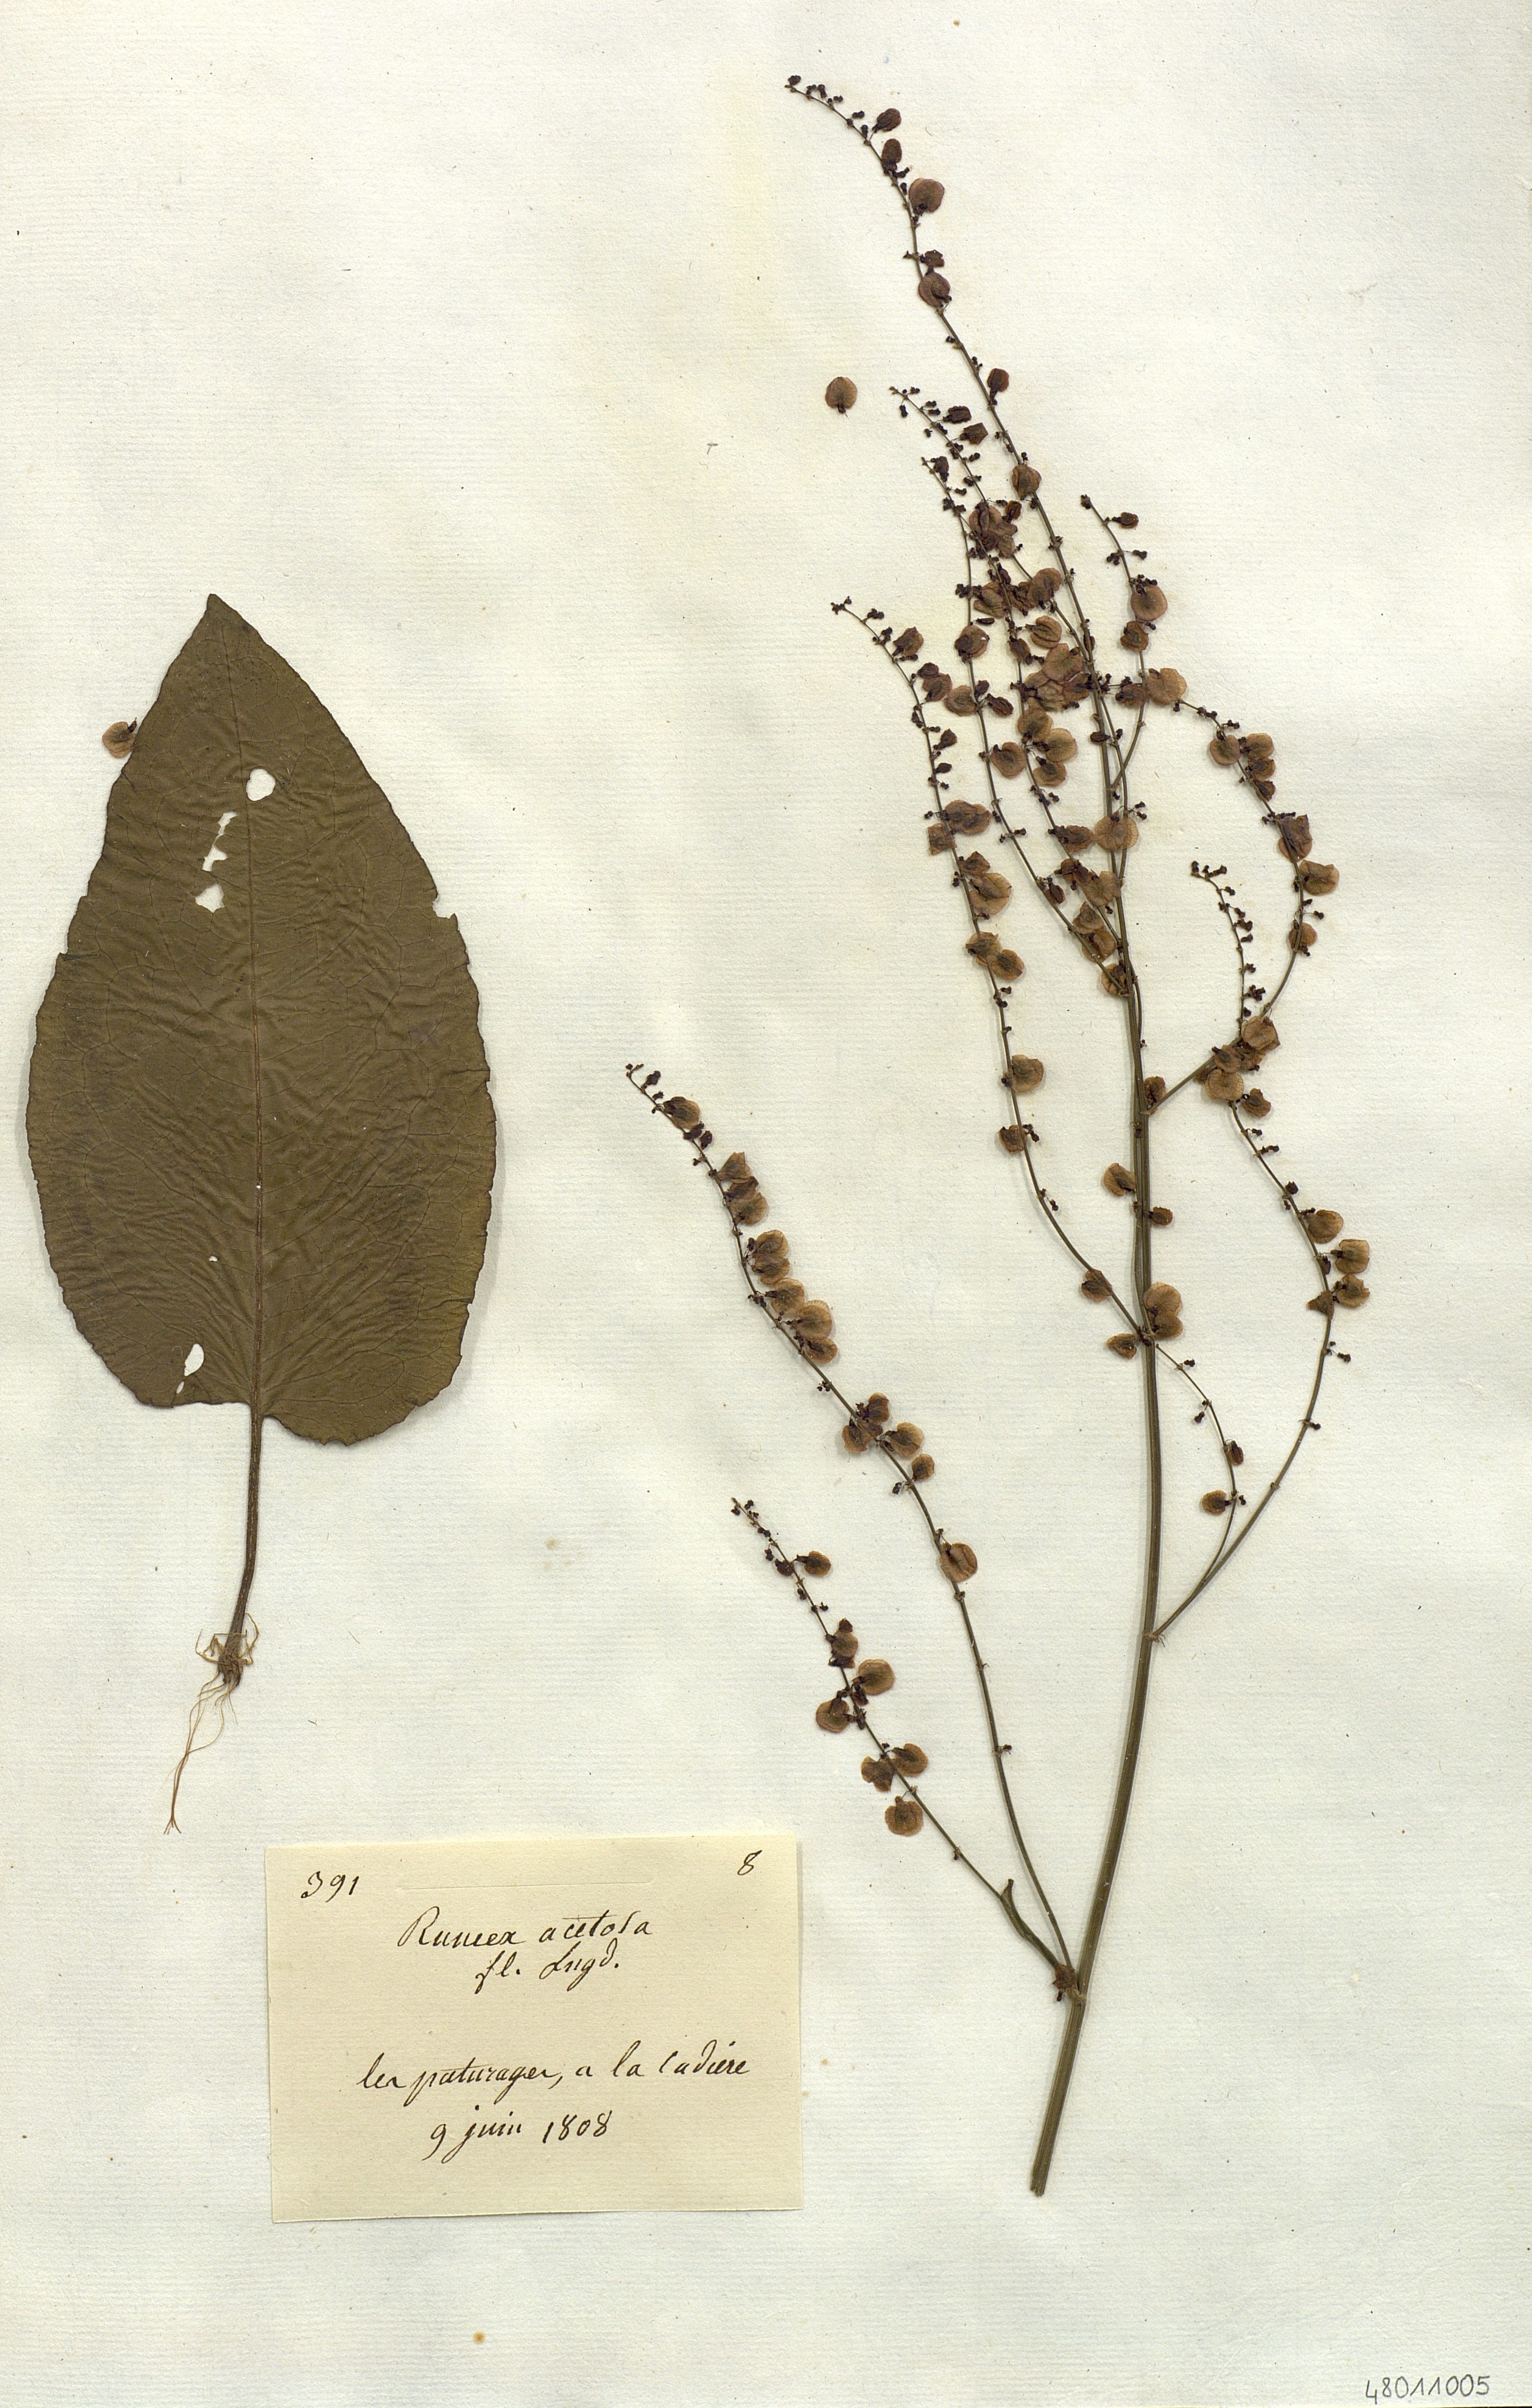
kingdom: Plantae
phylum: Tracheophyta
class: Magnoliopsida
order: Caryophyllales
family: Polygonaceae
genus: Rumex
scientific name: Rumex acetosa
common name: Garden sorrel
